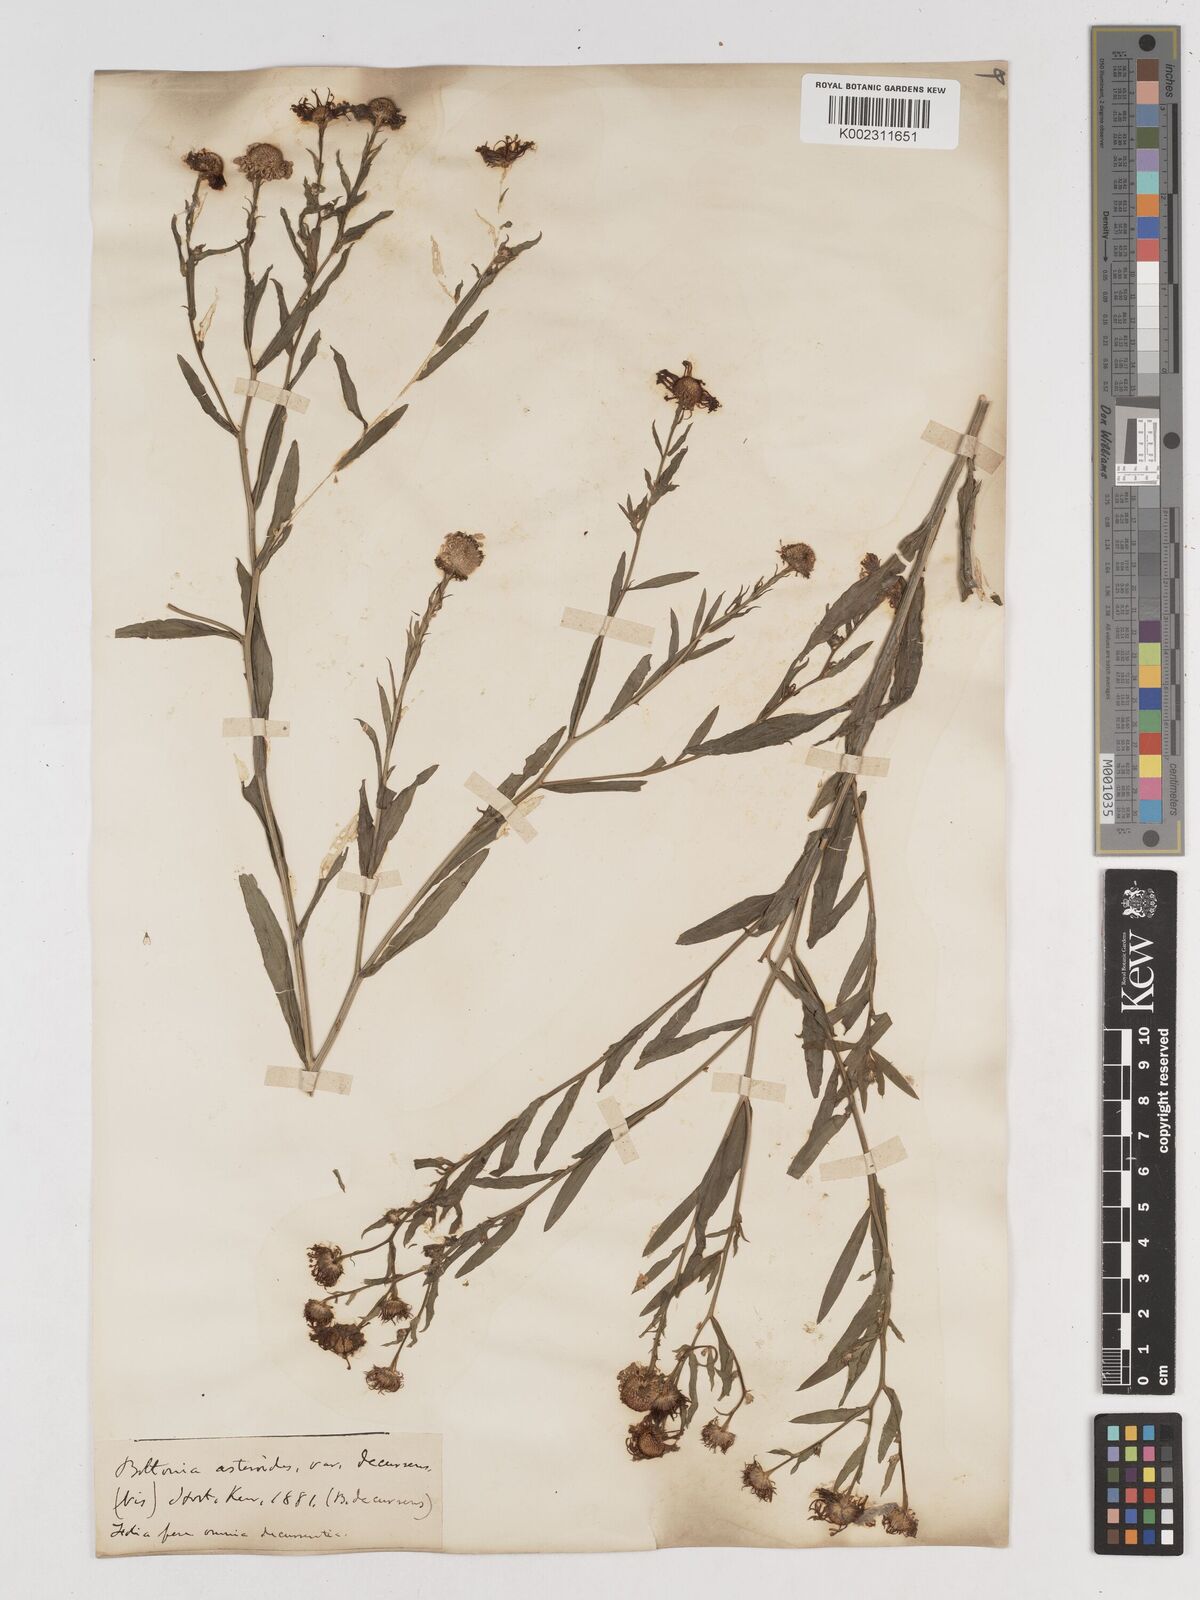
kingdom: Plantae
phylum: Tracheophyta
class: Magnoliopsida
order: Asterales
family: Asteraceae
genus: Boltonia
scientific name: Boltonia decurrens
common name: Decurrent false aster
